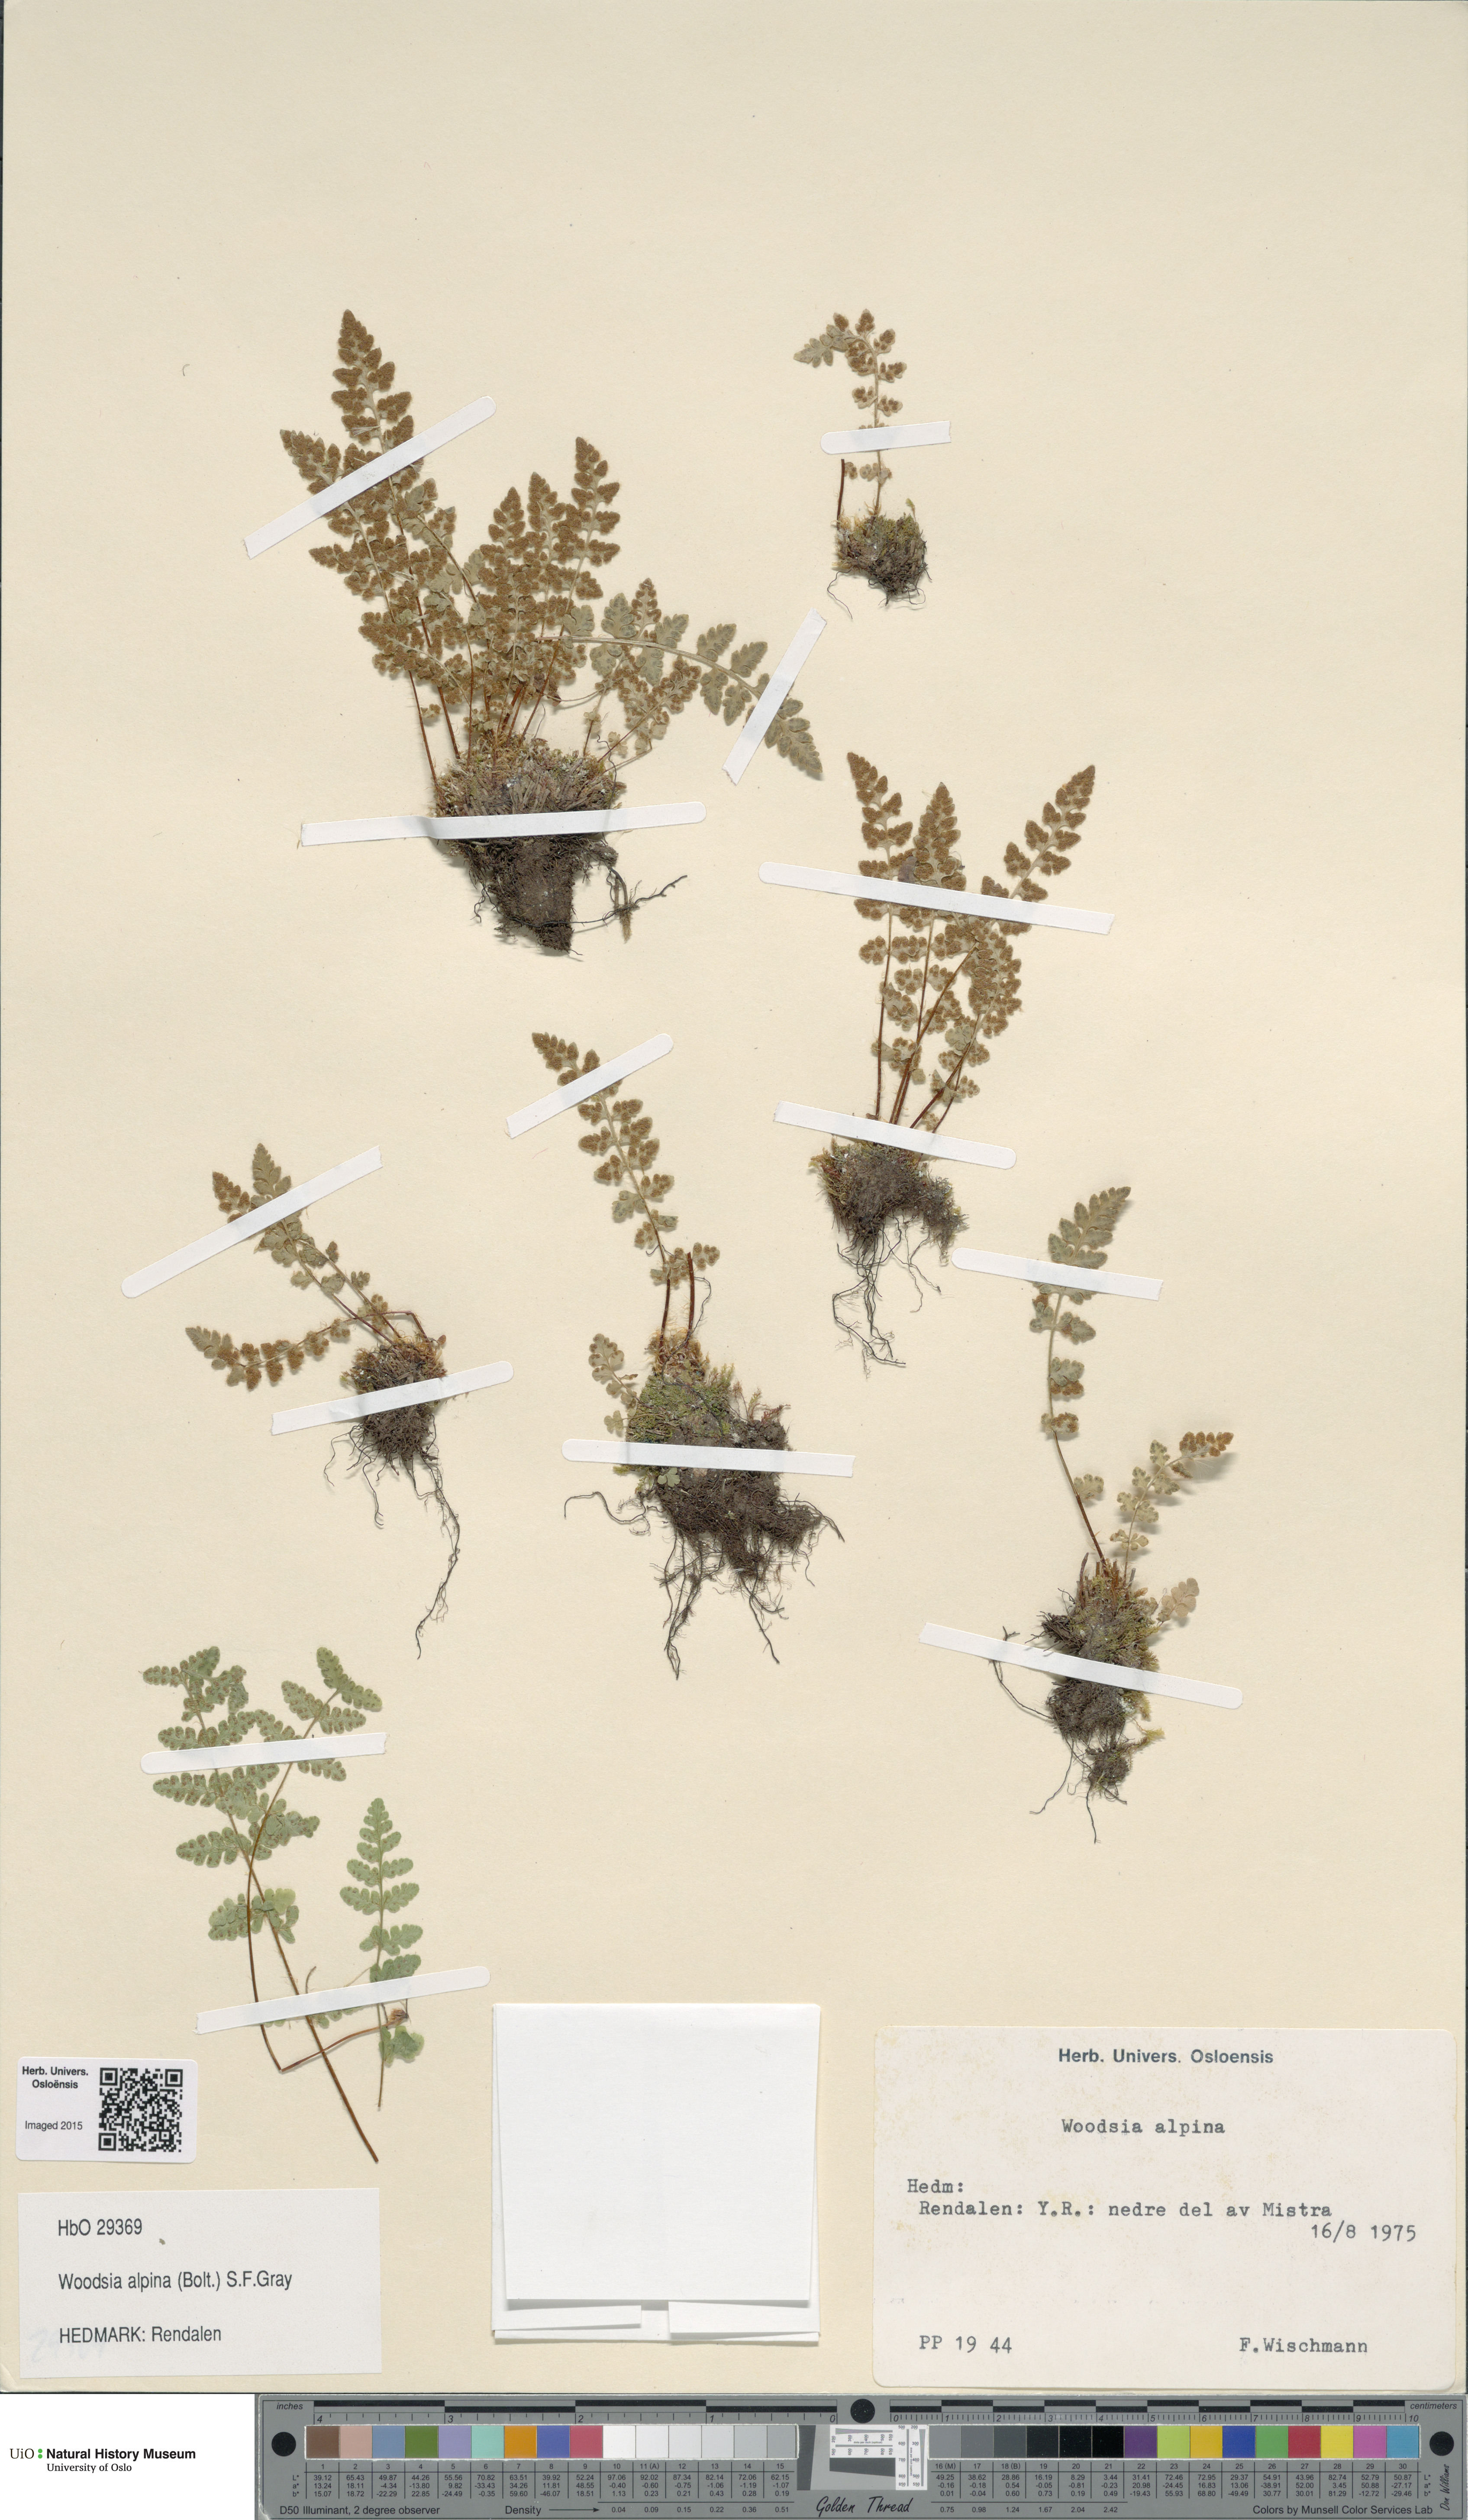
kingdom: Plantae
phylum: Tracheophyta
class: Polypodiopsida
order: Polypodiales
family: Woodsiaceae
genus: Woodsia
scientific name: Woodsia alpina
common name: Alpine woodsia
